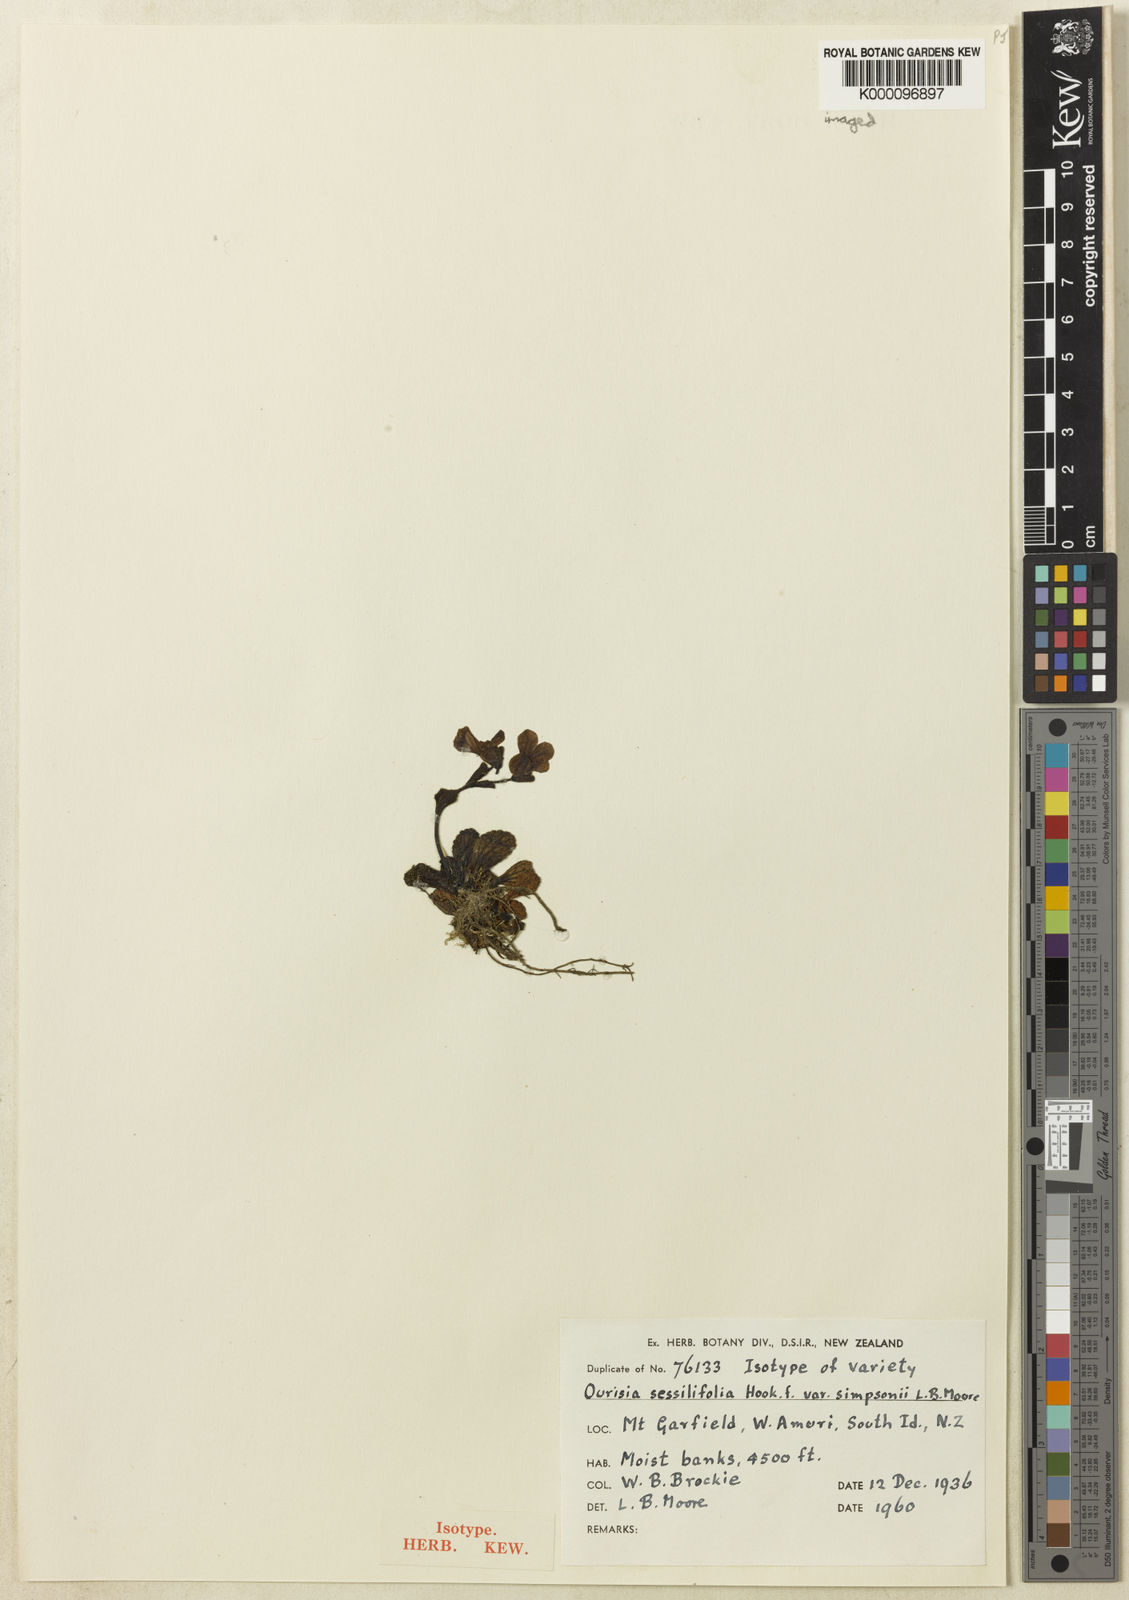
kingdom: Plantae
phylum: Tracheophyta
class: Magnoliopsida
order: Lamiales
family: Plantaginaceae
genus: Ourisia
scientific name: Ourisia sessilifolia
